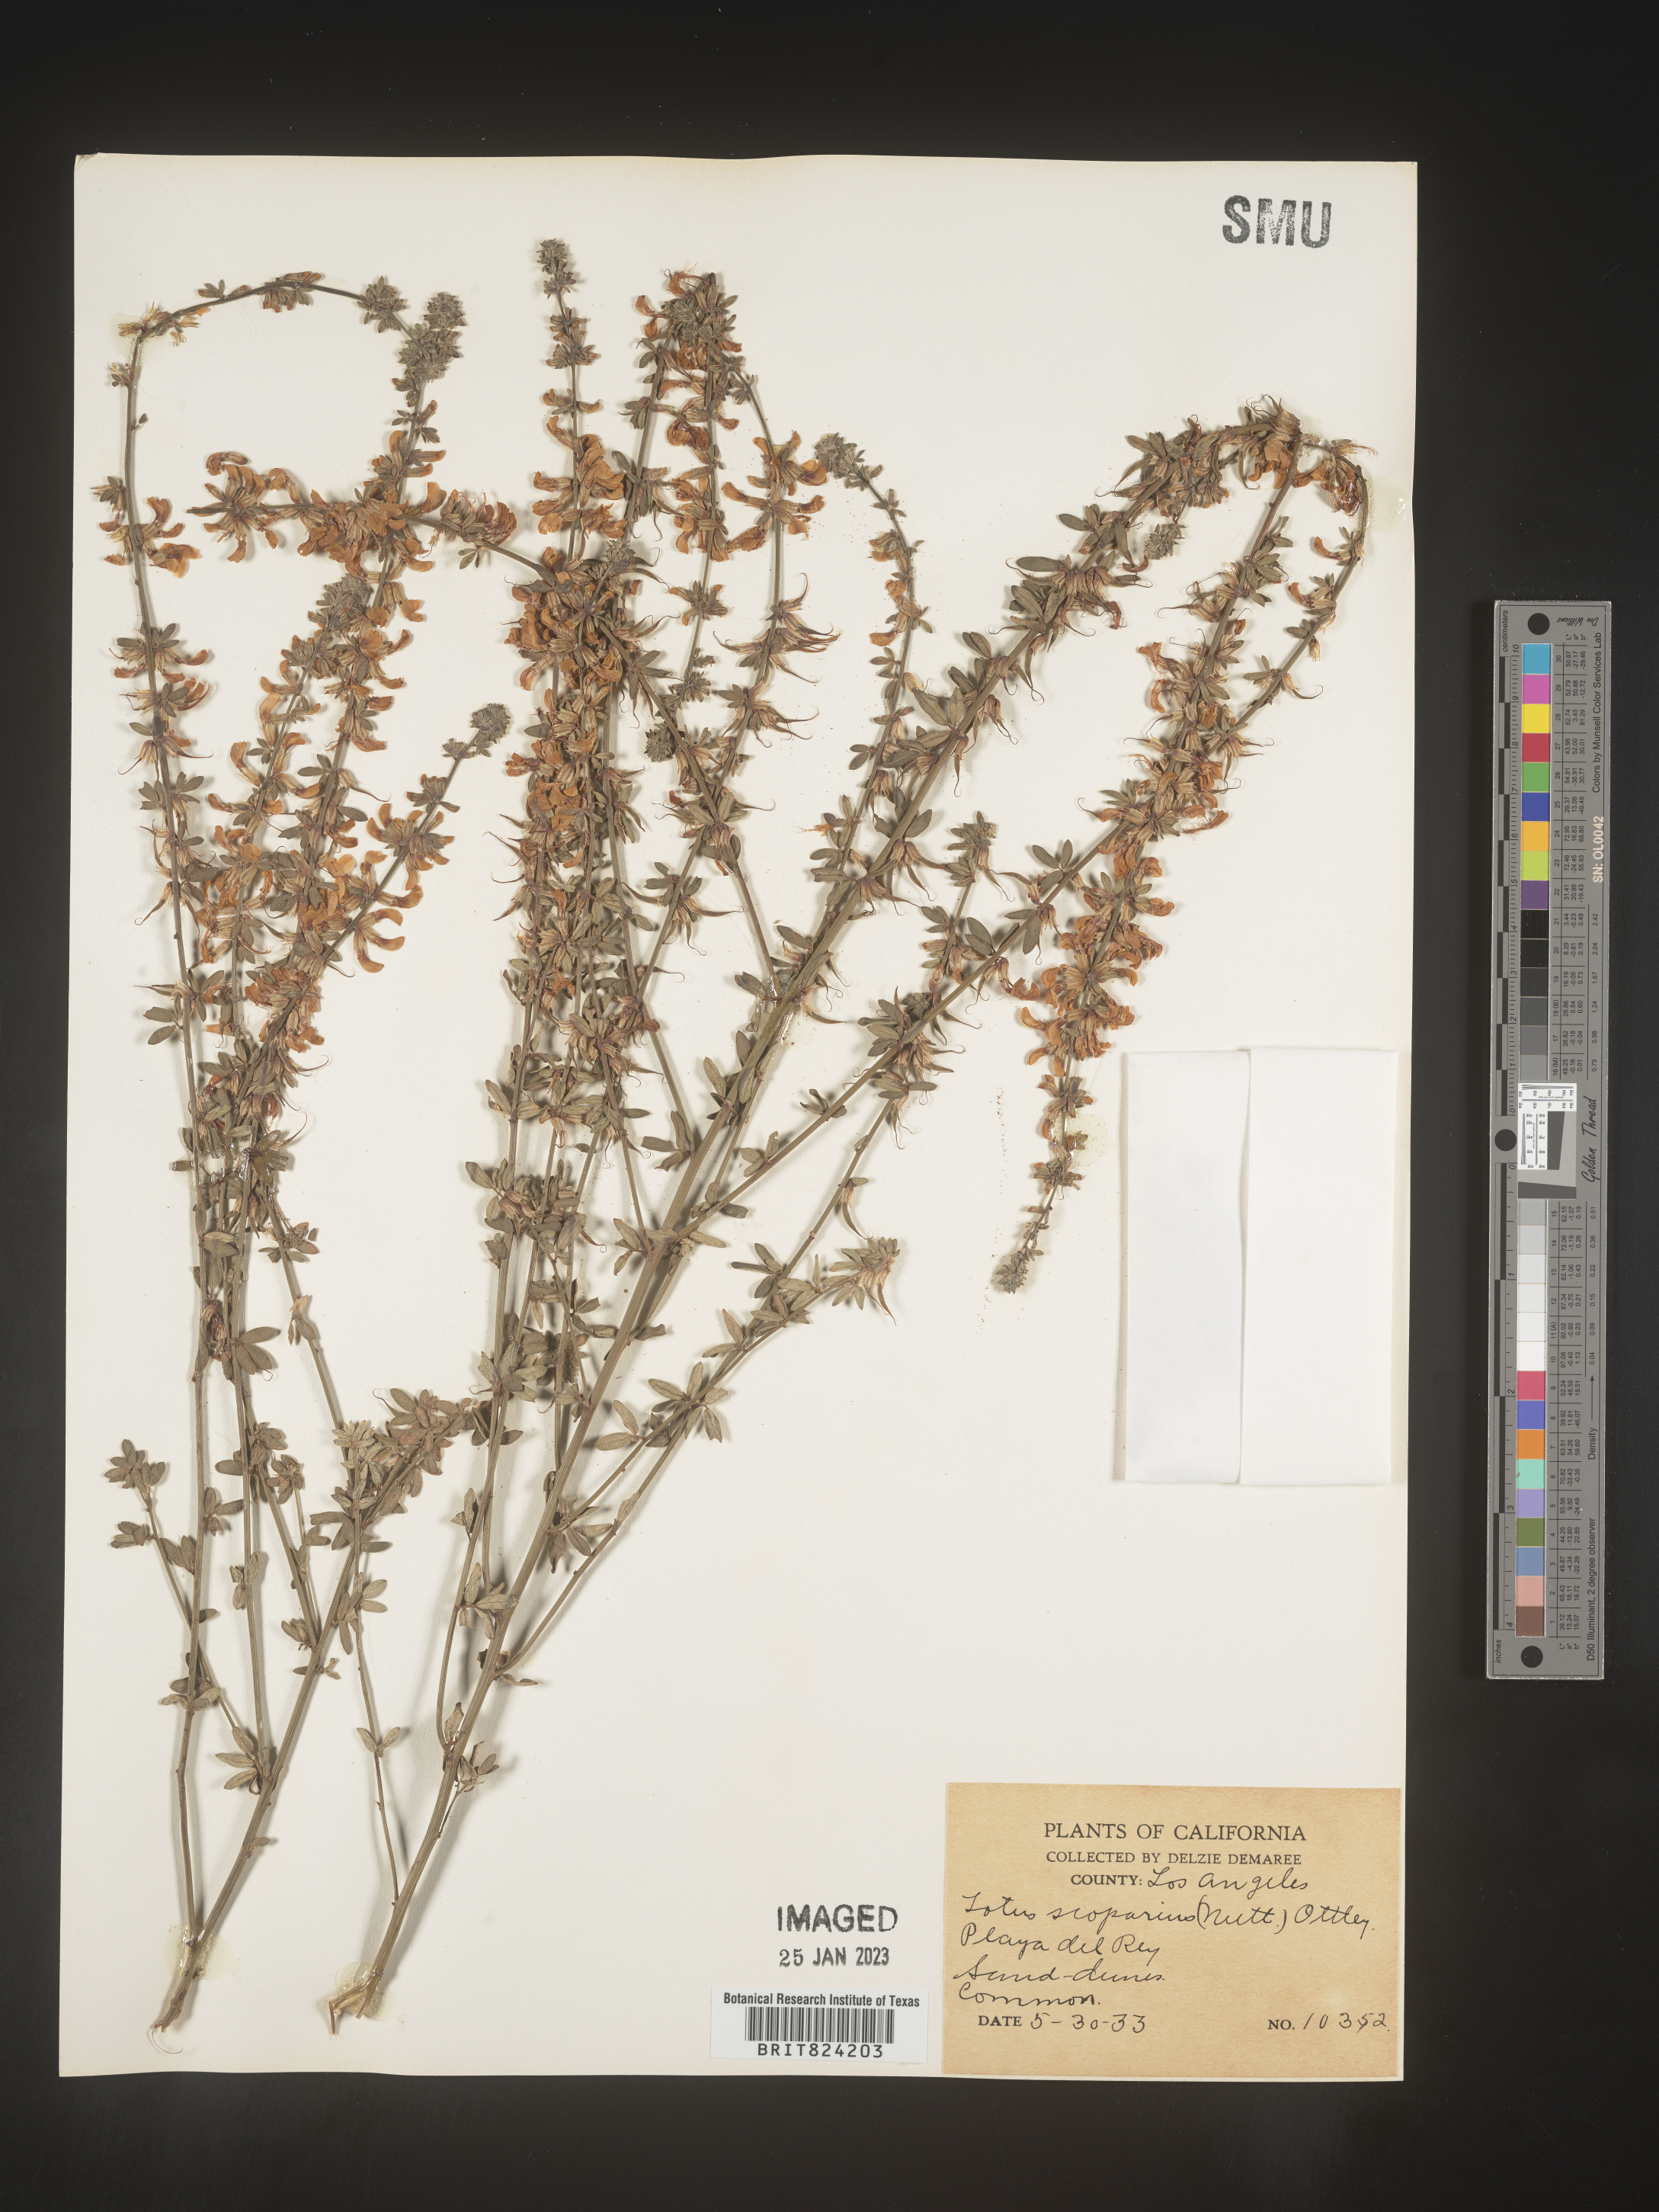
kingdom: Plantae
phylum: Tracheophyta
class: Magnoliopsida
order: Fabales
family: Fabaceae
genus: Lotus
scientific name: Lotus
